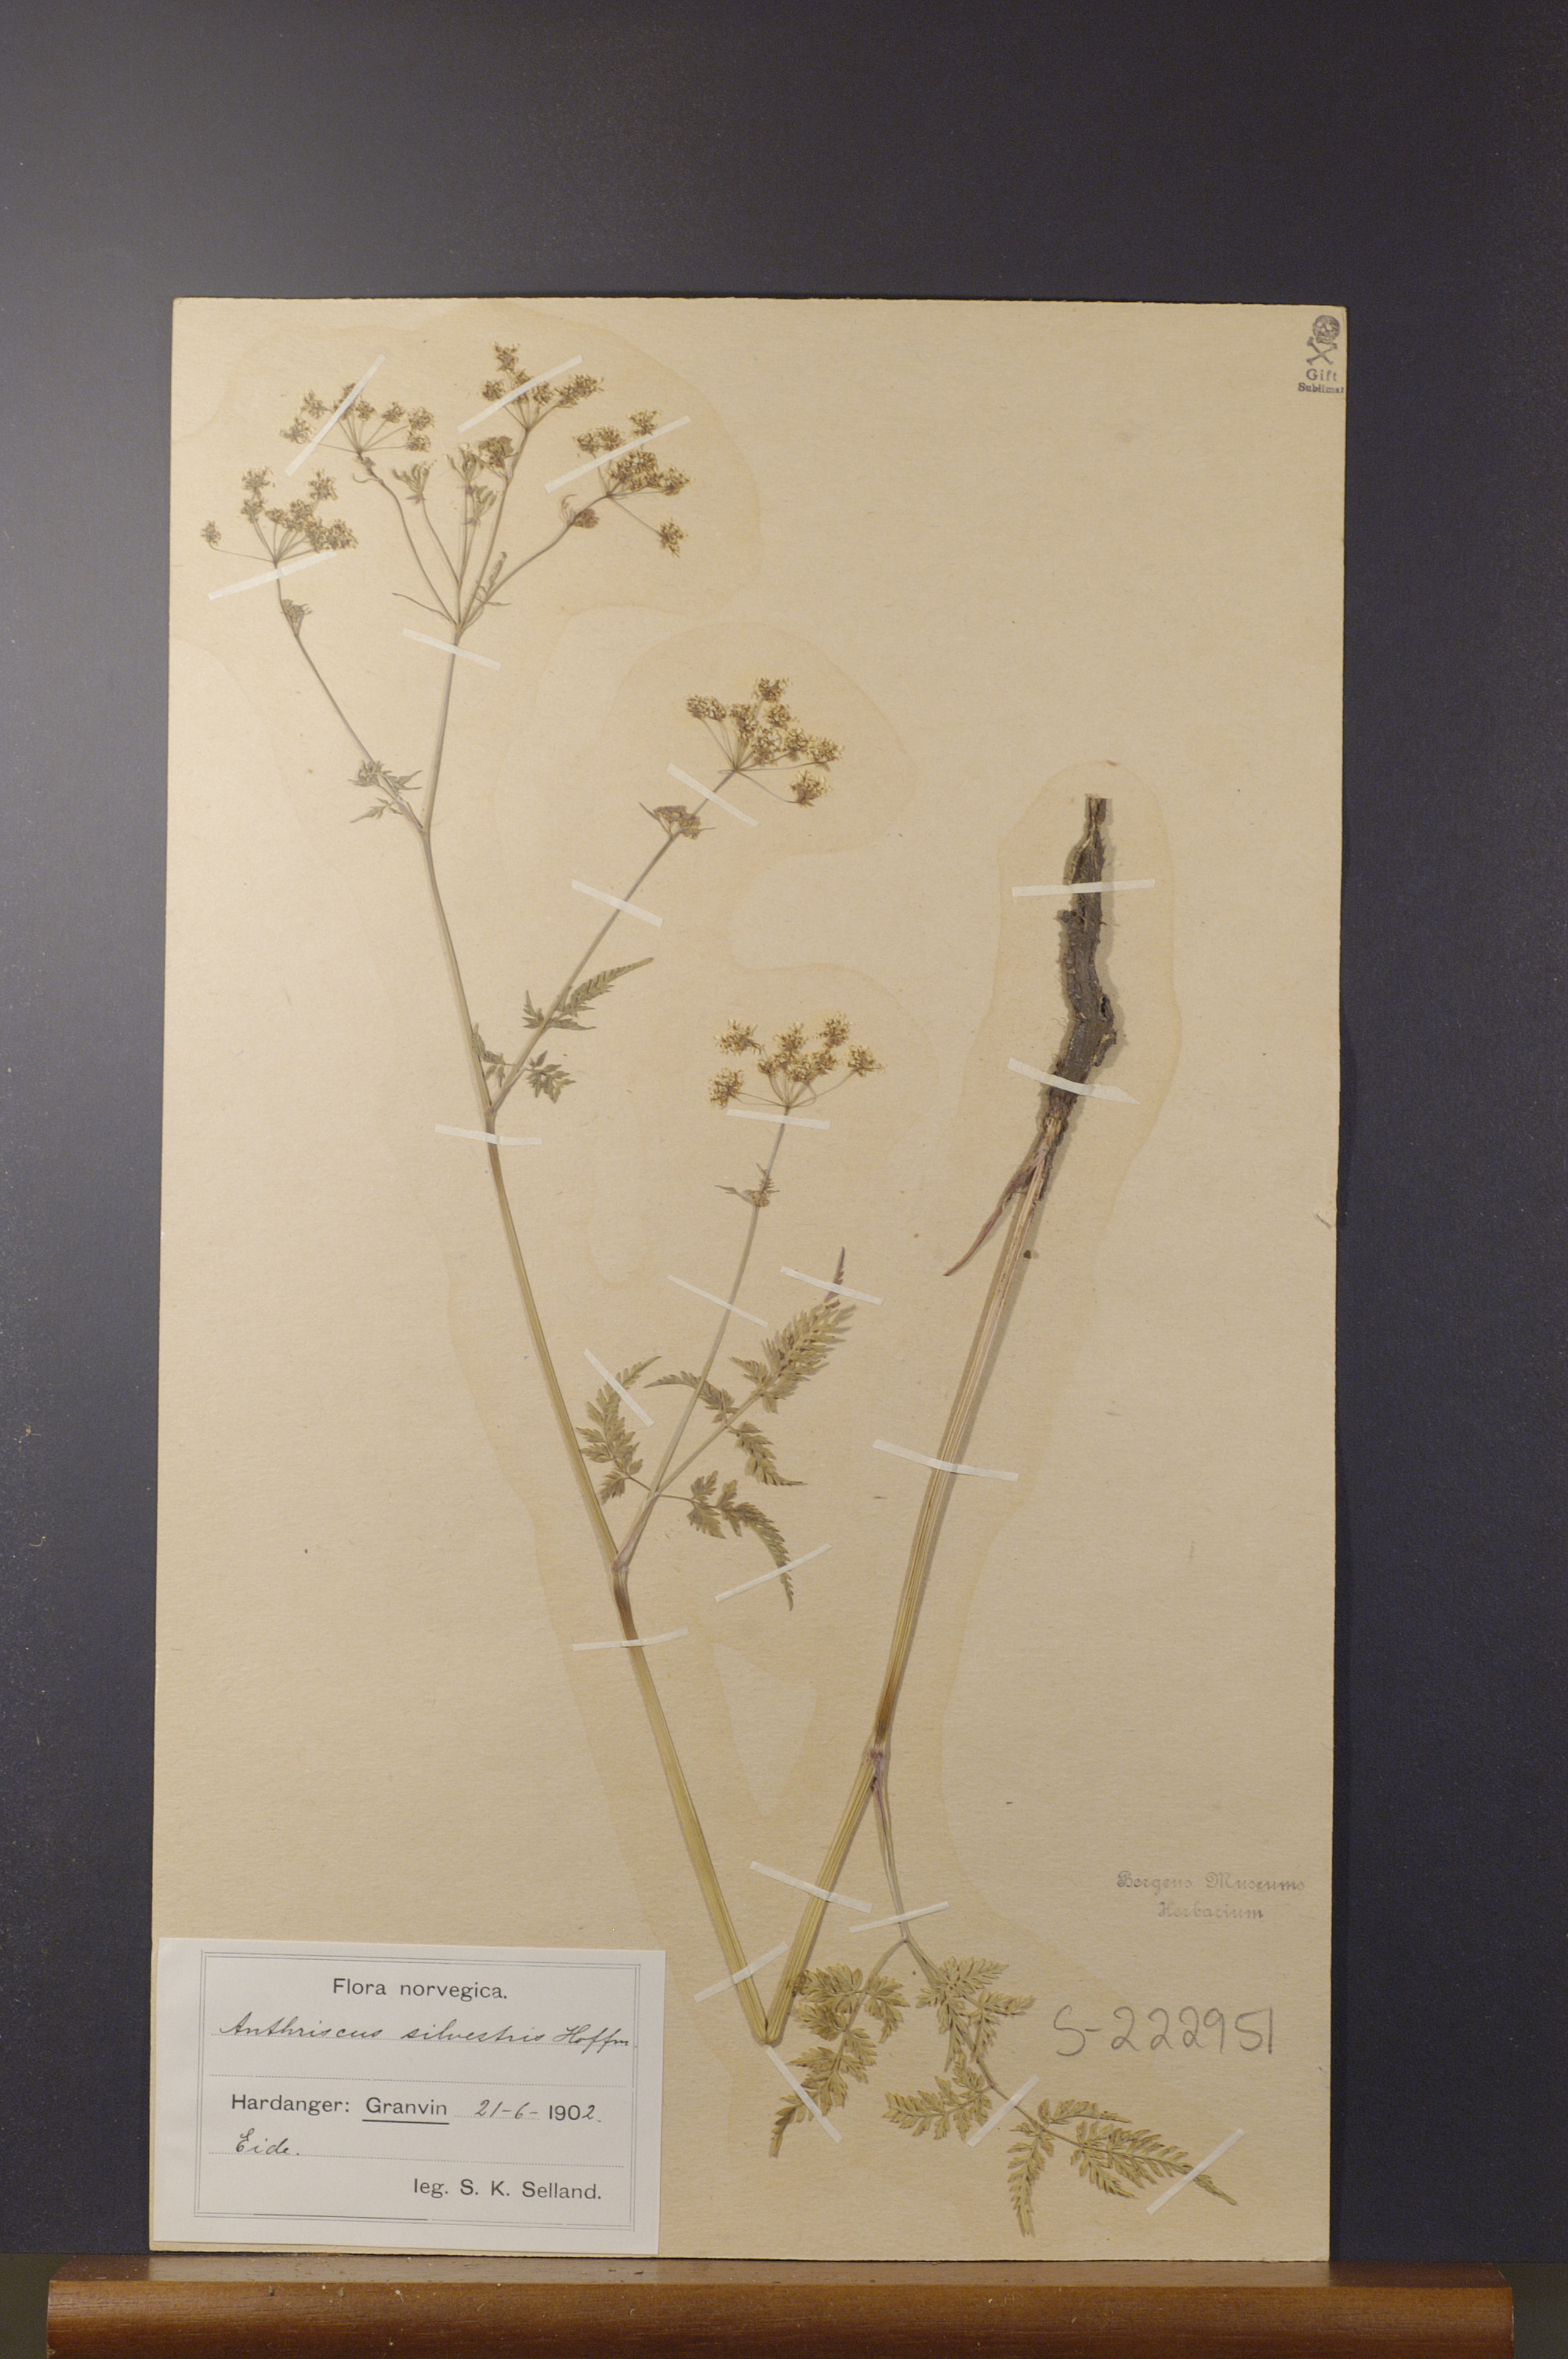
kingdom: Plantae
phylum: Tracheophyta
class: Magnoliopsida
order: Apiales
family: Apiaceae
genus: Anthriscus
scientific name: Anthriscus sylvestris
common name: Cow parsley
